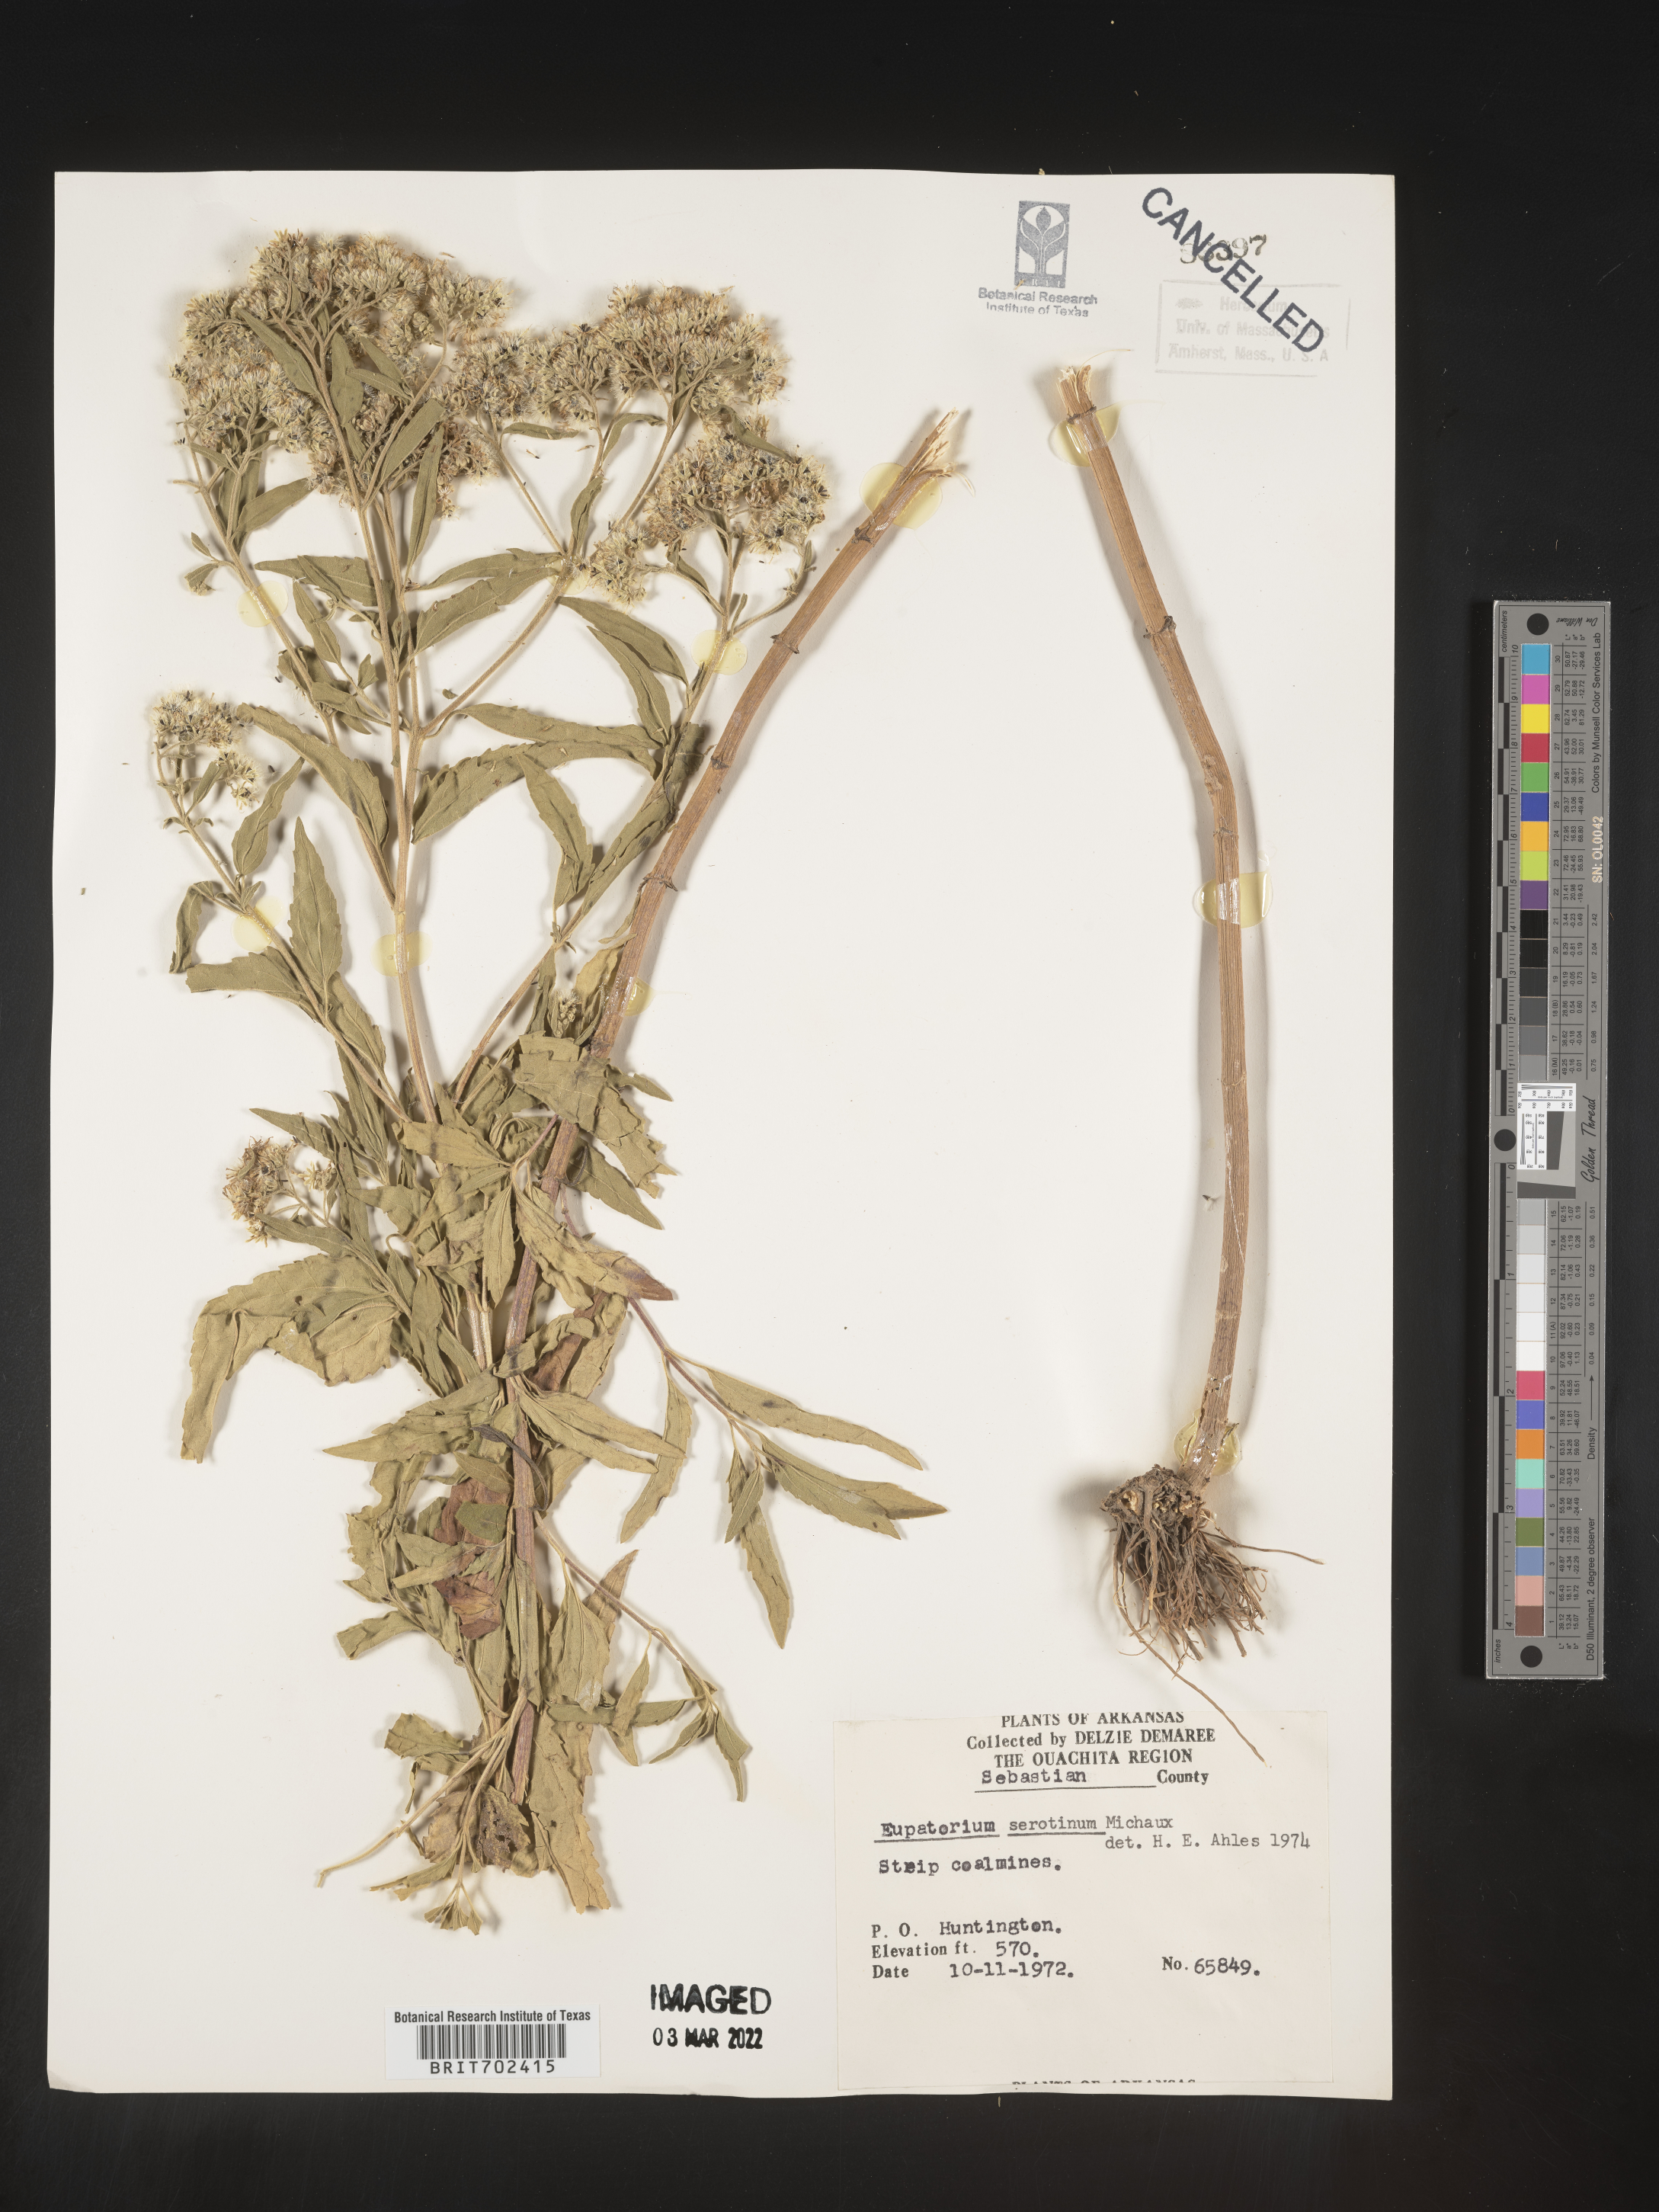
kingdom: Plantae
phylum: Tracheophyta
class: Magnoliopsida
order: Asterales
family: Asteraceae
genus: Eupatorium
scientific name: Eupatorium serotinum
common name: Late boneset
